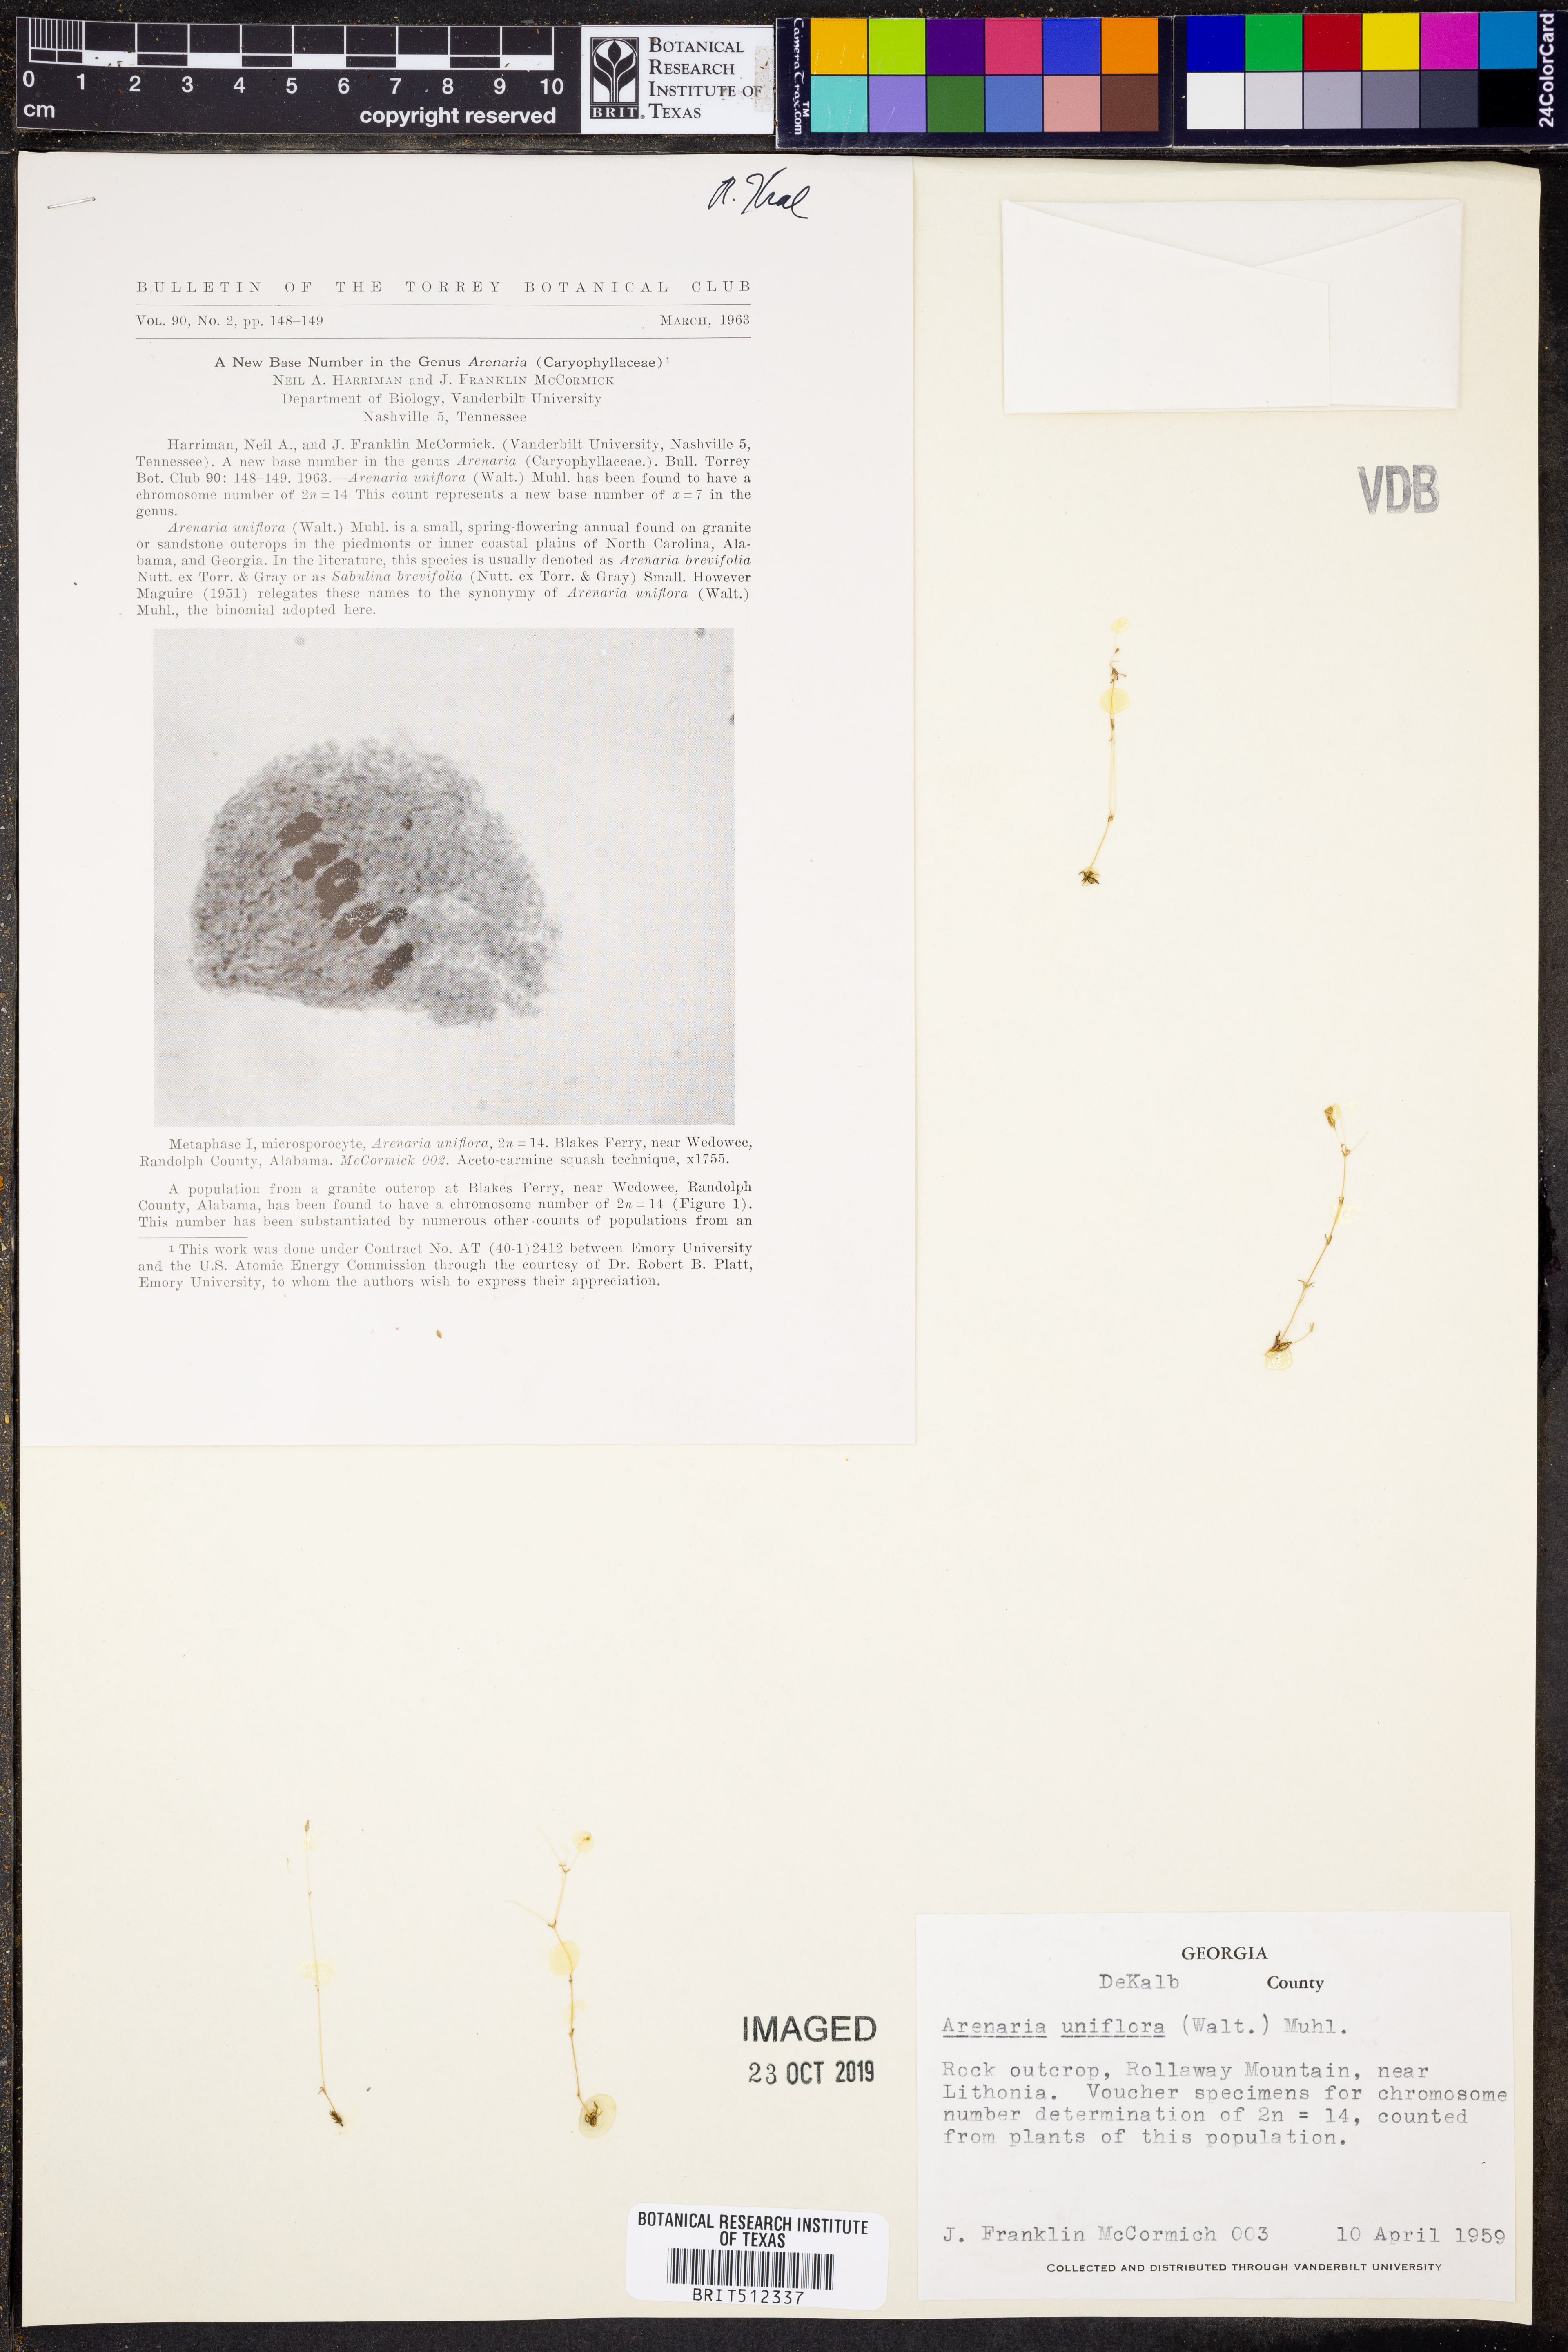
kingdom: Plantae
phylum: Tracheophyta
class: Magnoliopsida
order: Caryophyllales
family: Caryophyllaceae
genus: Geocarpon
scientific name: Geocarpon uniflorum
